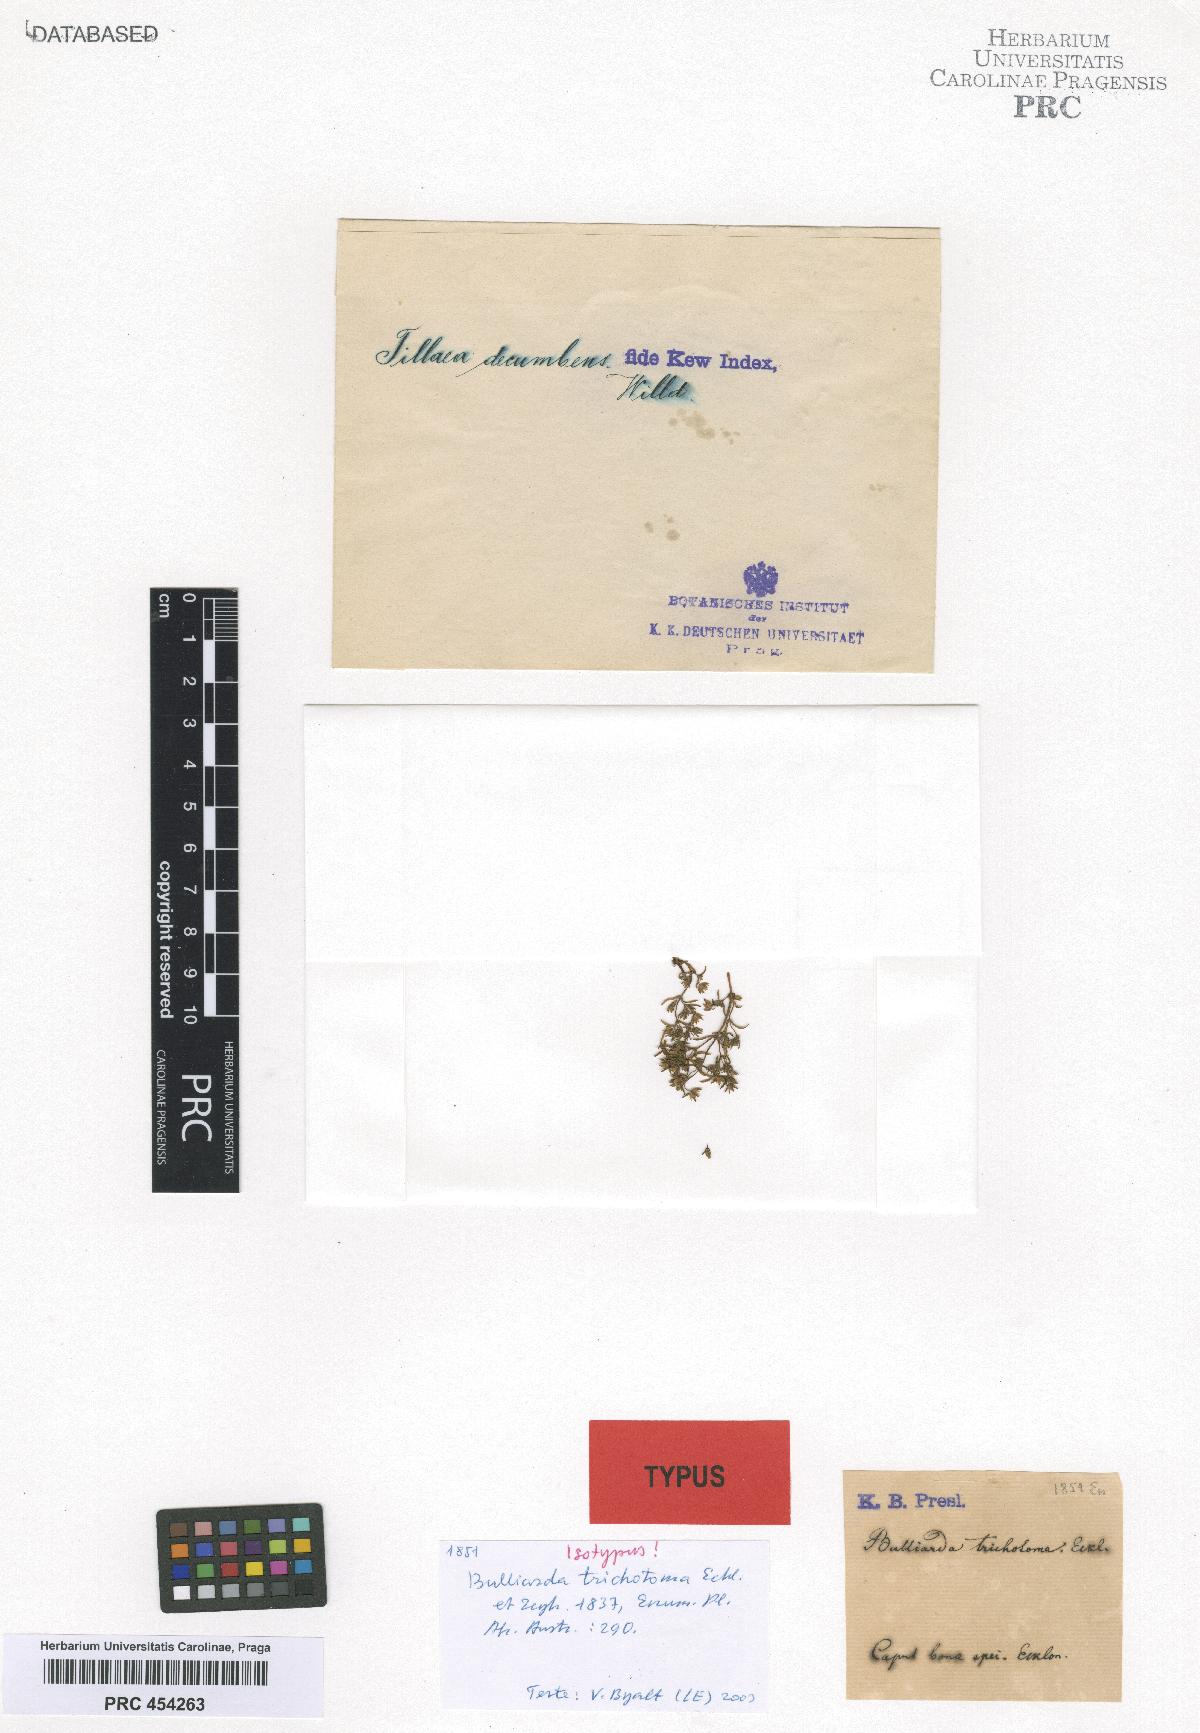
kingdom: Plantae
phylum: Tracheophyta
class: Magnoliopsida
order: Saxifragales
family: Crassulaceae
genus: Crassula
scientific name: Crassula
